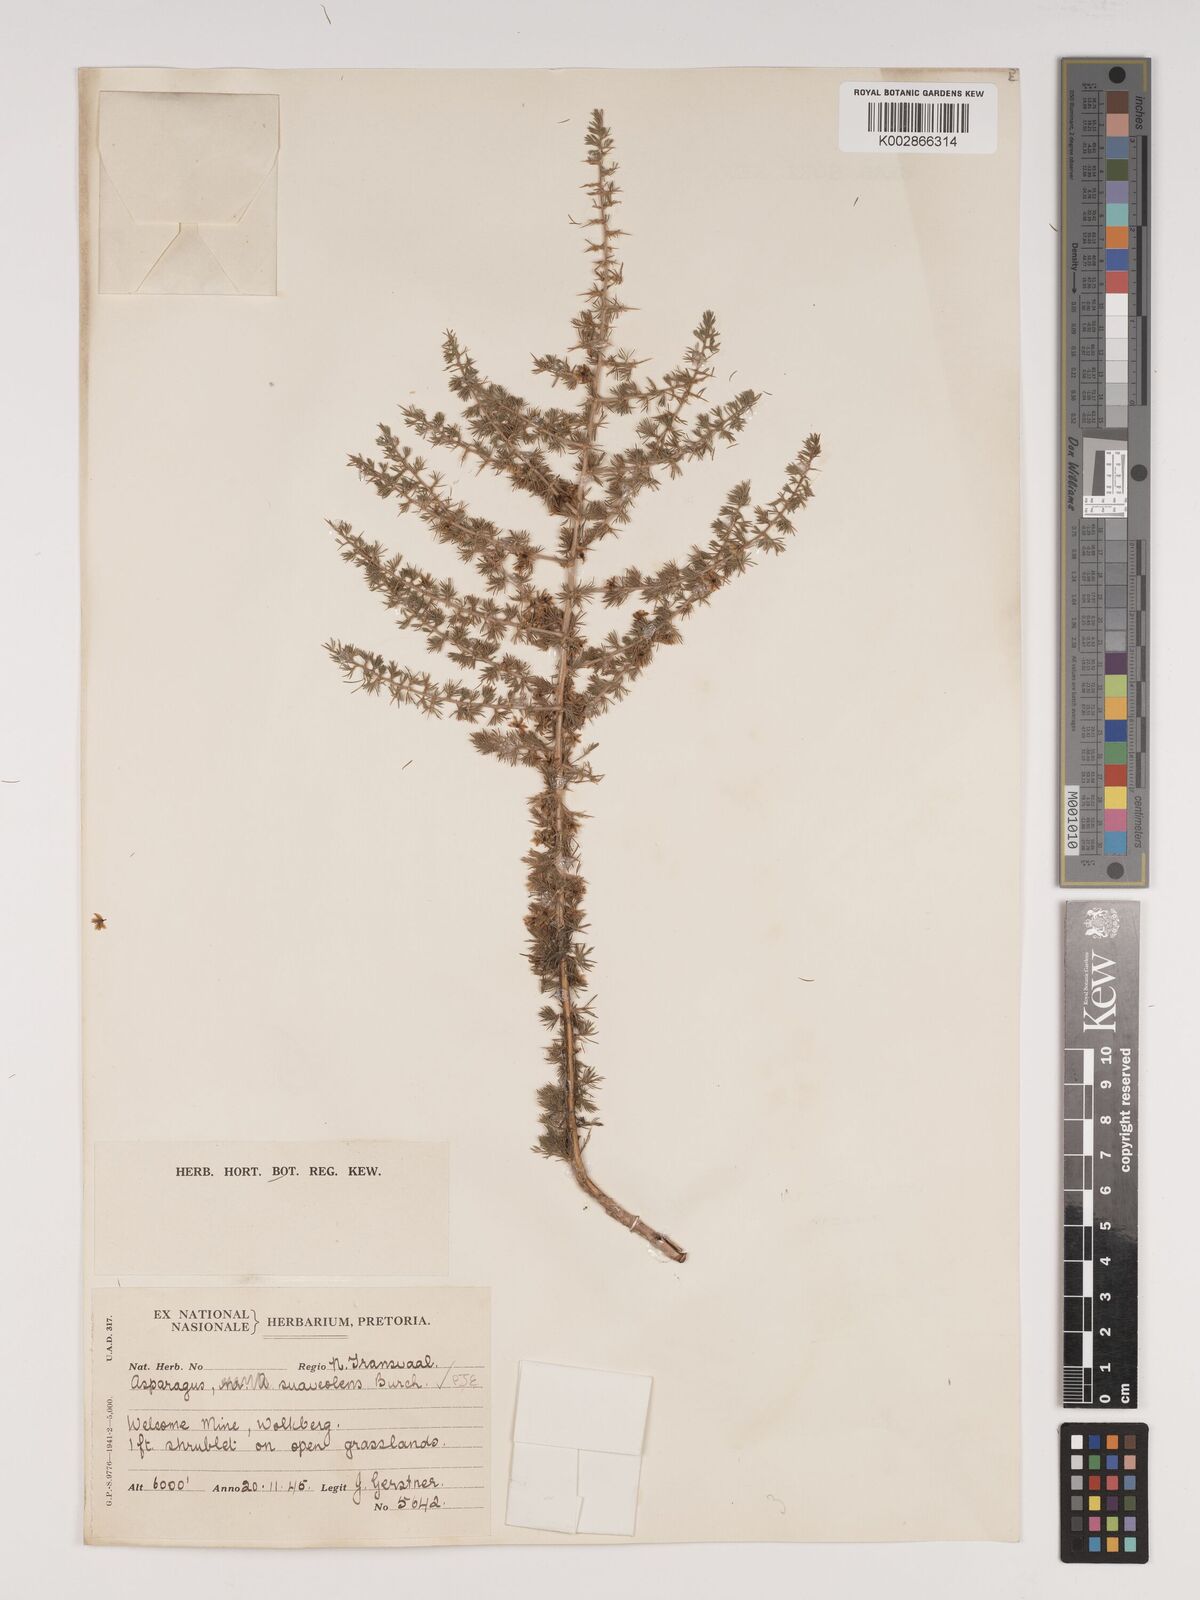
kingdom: Plantae
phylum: Tracheophyta
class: Liliopsida
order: Asparagales
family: Asparagaceae
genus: Asparagus
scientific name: Asparagus suaveolens
